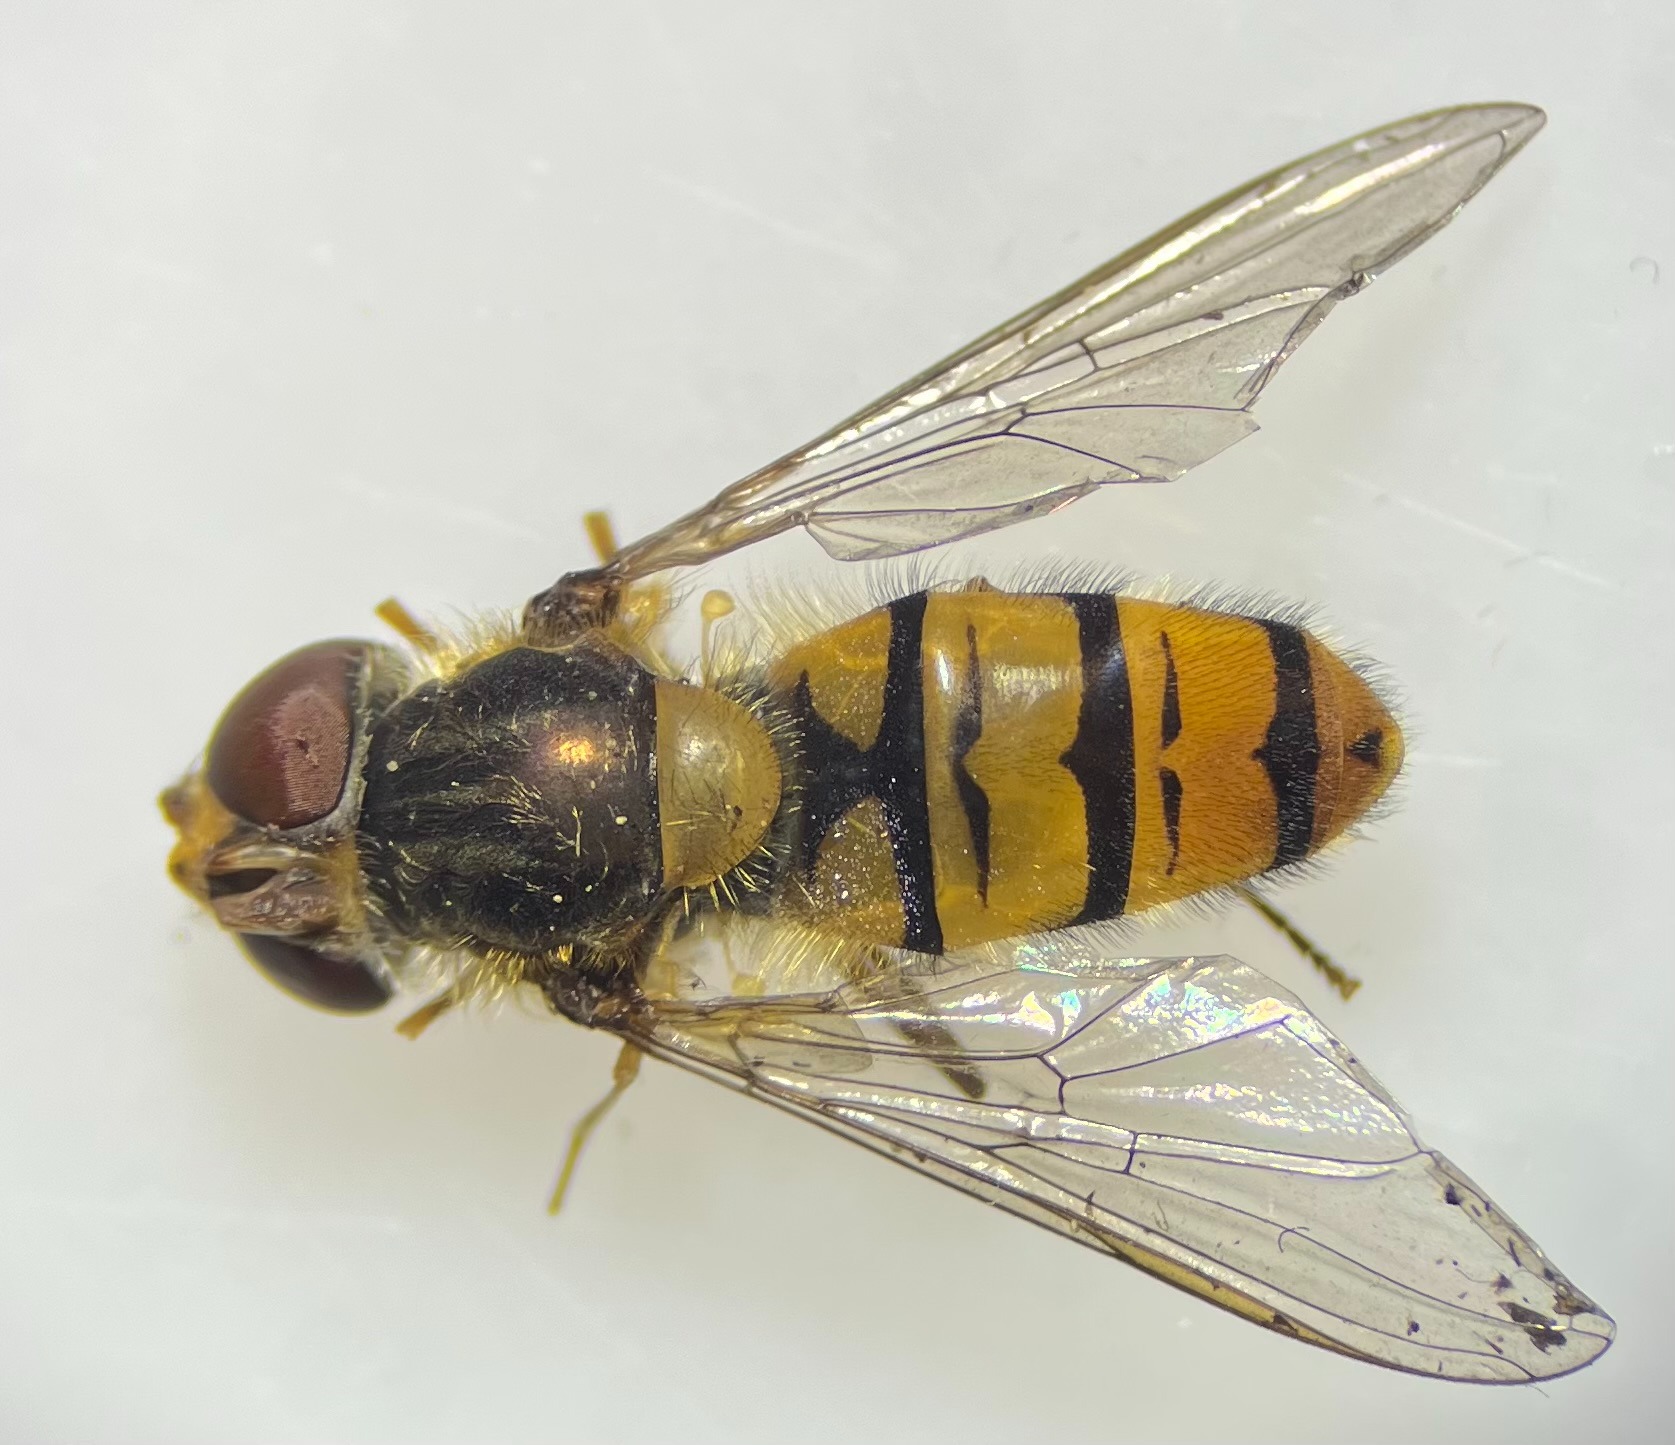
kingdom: Animalia
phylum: Arthropoda
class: Insecta
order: Diptera
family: Syrphidae
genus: Episyrphus
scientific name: Episyrphus balteatus
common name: Dobbeltbåndet svirreflue
